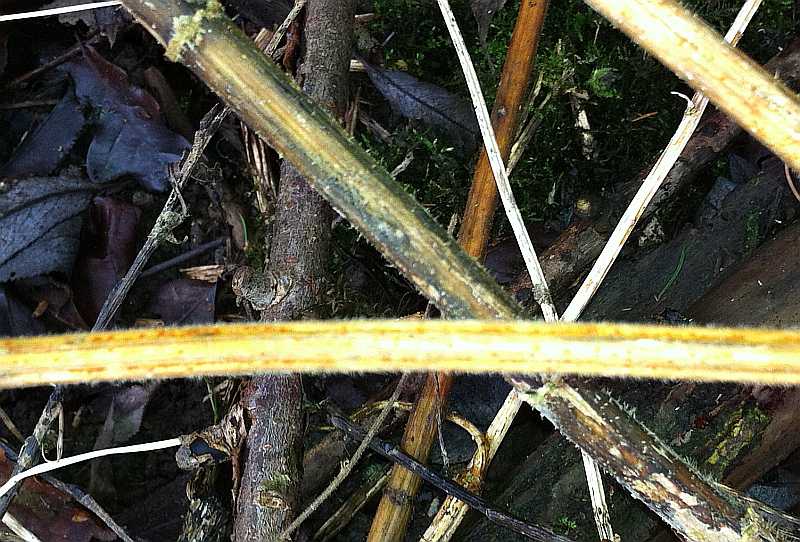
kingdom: Fungi
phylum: Ascomycota
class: Leotiomycetes
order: Helotiales
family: Calloriaceae
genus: Calloria
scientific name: Calloria urticae
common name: nælde-orangeskive
